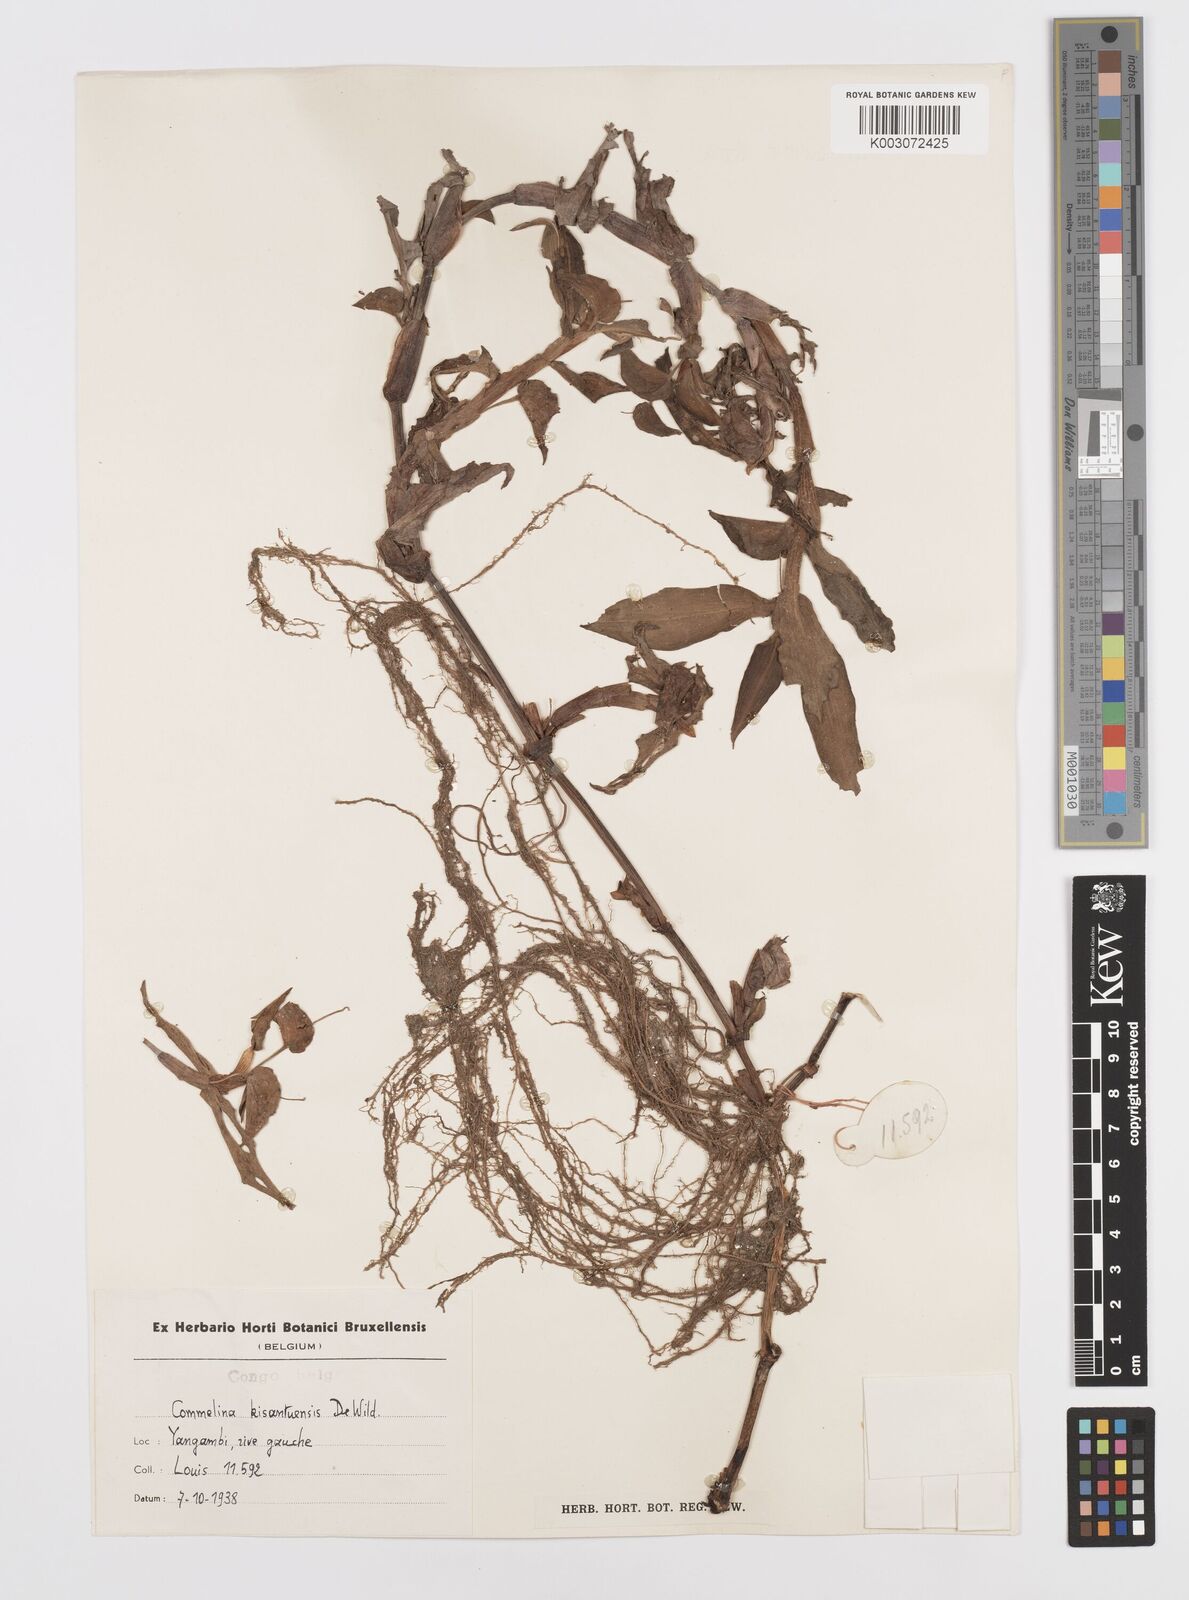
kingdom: Plantae
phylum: Tracheophyta
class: Liliopsida
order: Commelinales
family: Commelinaceae
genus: Commelina
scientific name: Commelina kisantuensis
